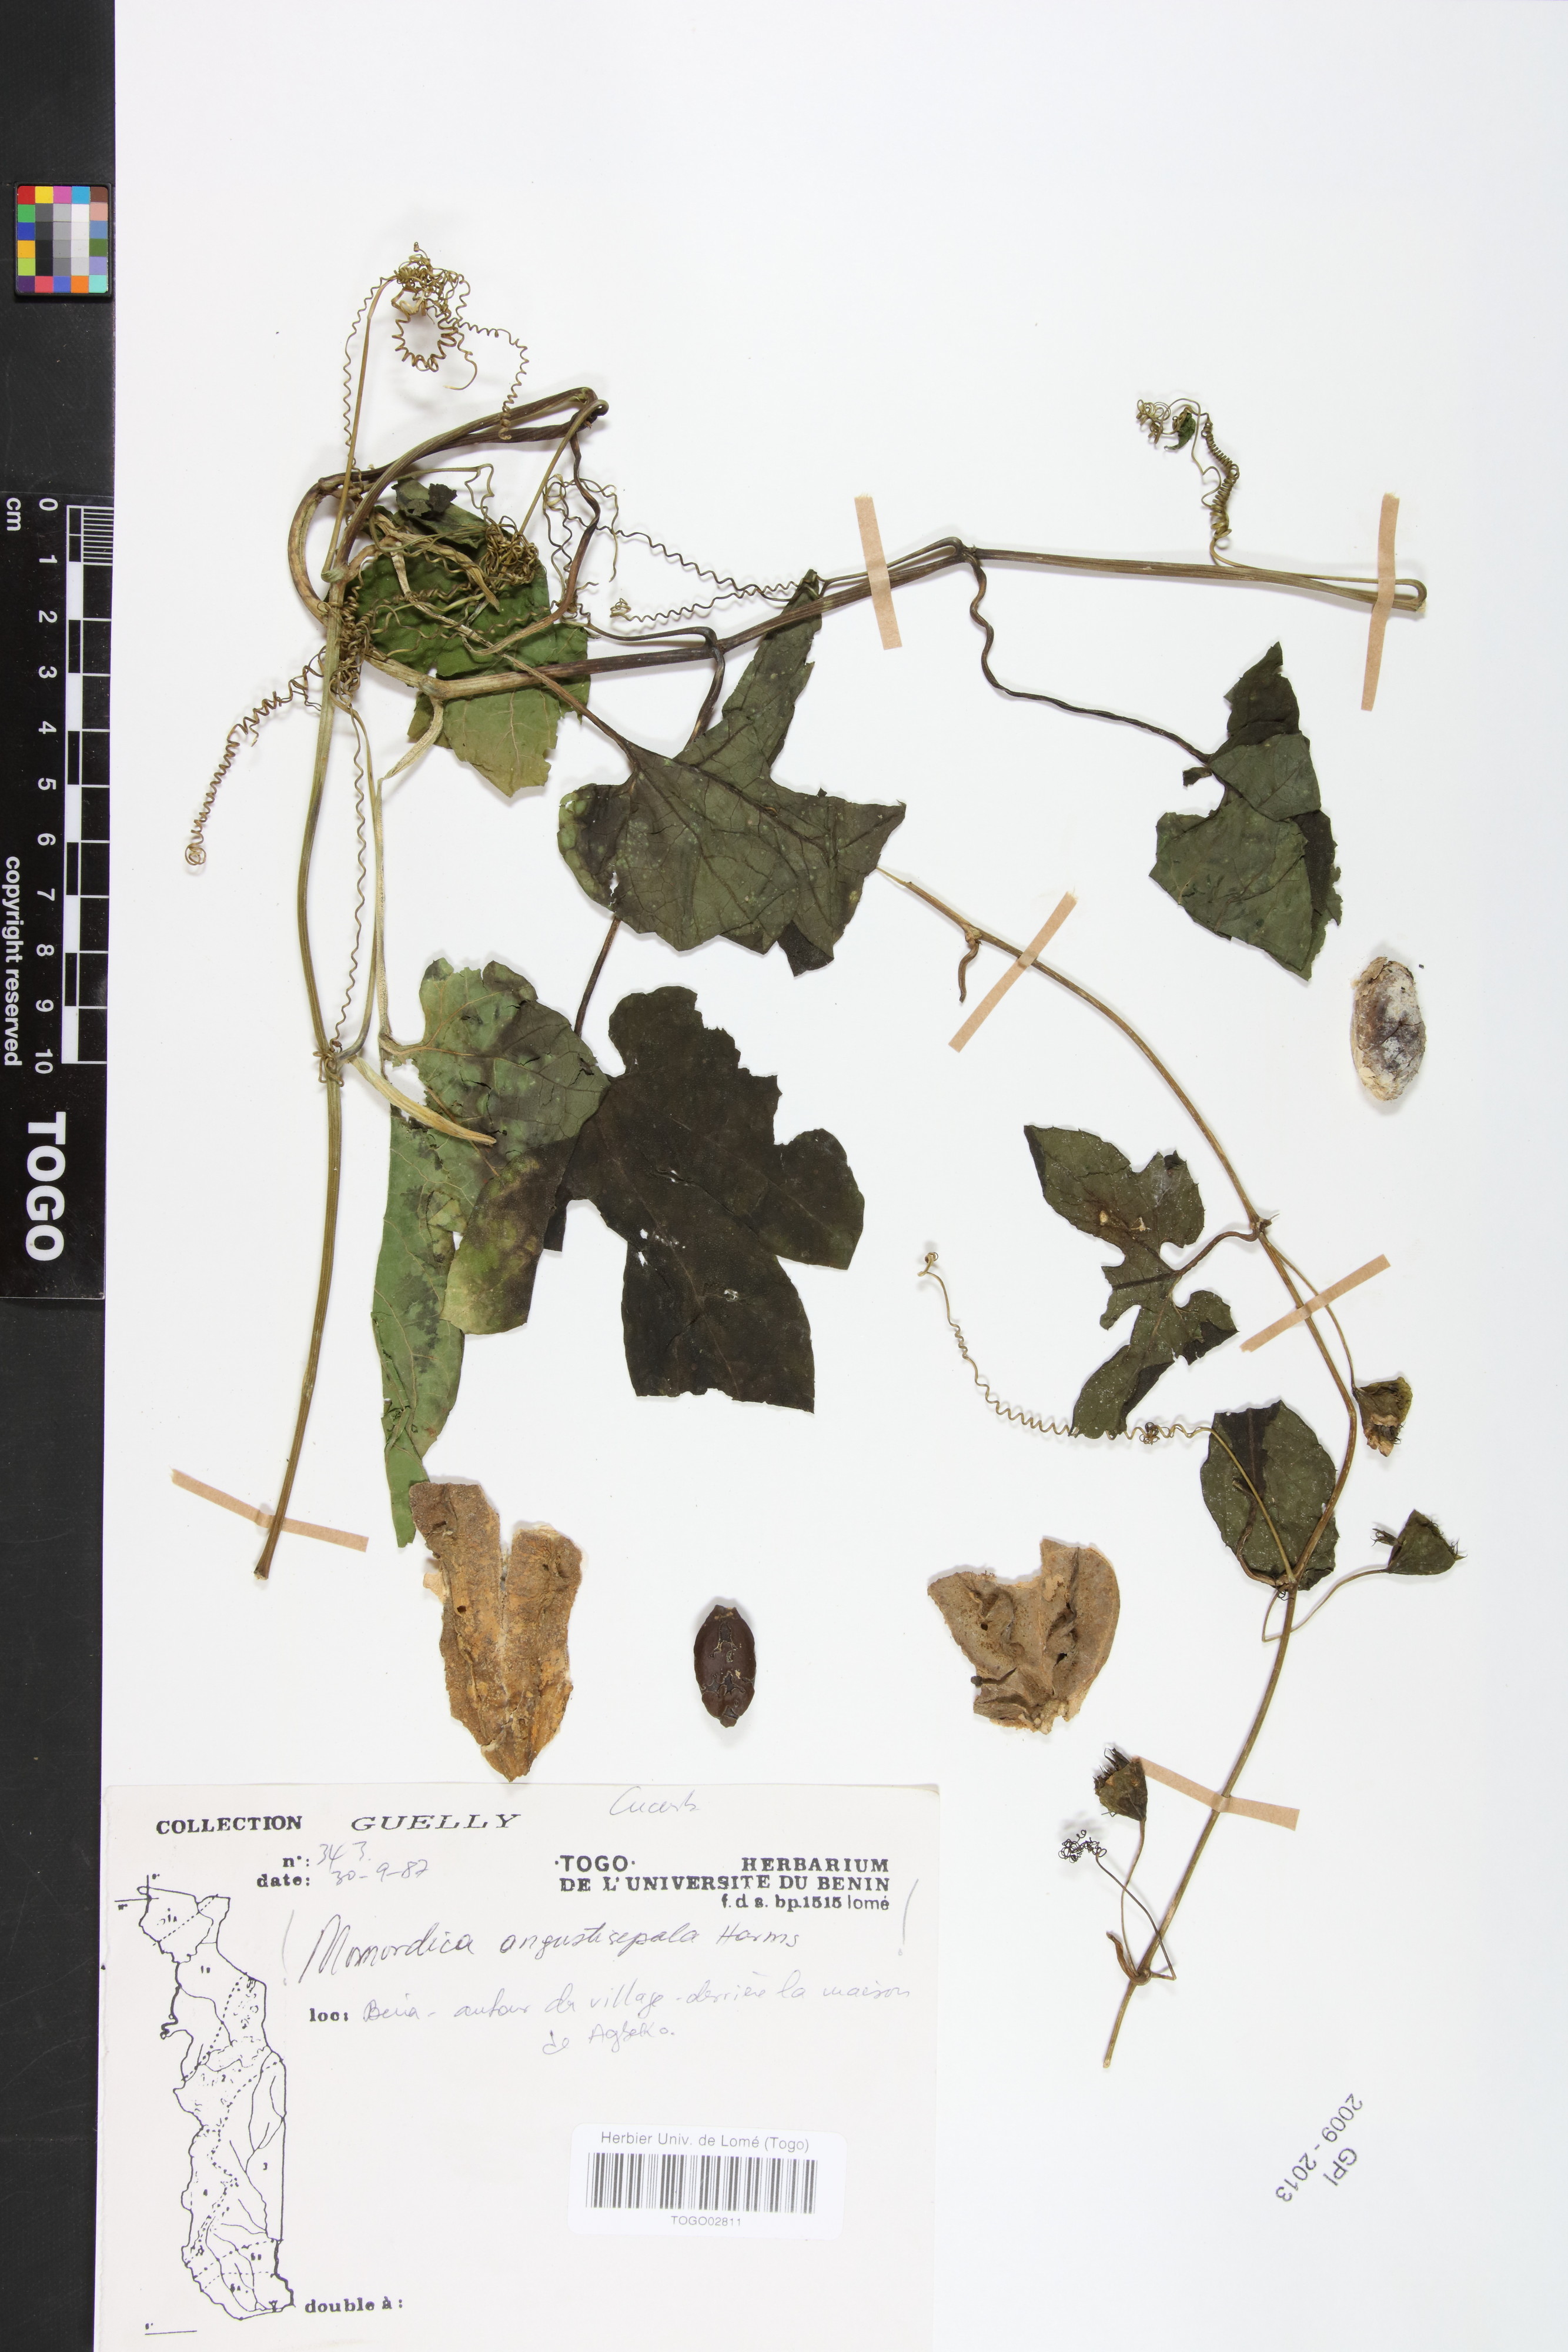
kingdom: Plantae
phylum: Tracheophyta
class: Magnoliopsida
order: Cucurbitales
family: Cucurbitaceae
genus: Momordica
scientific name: Momordica angustisepala
